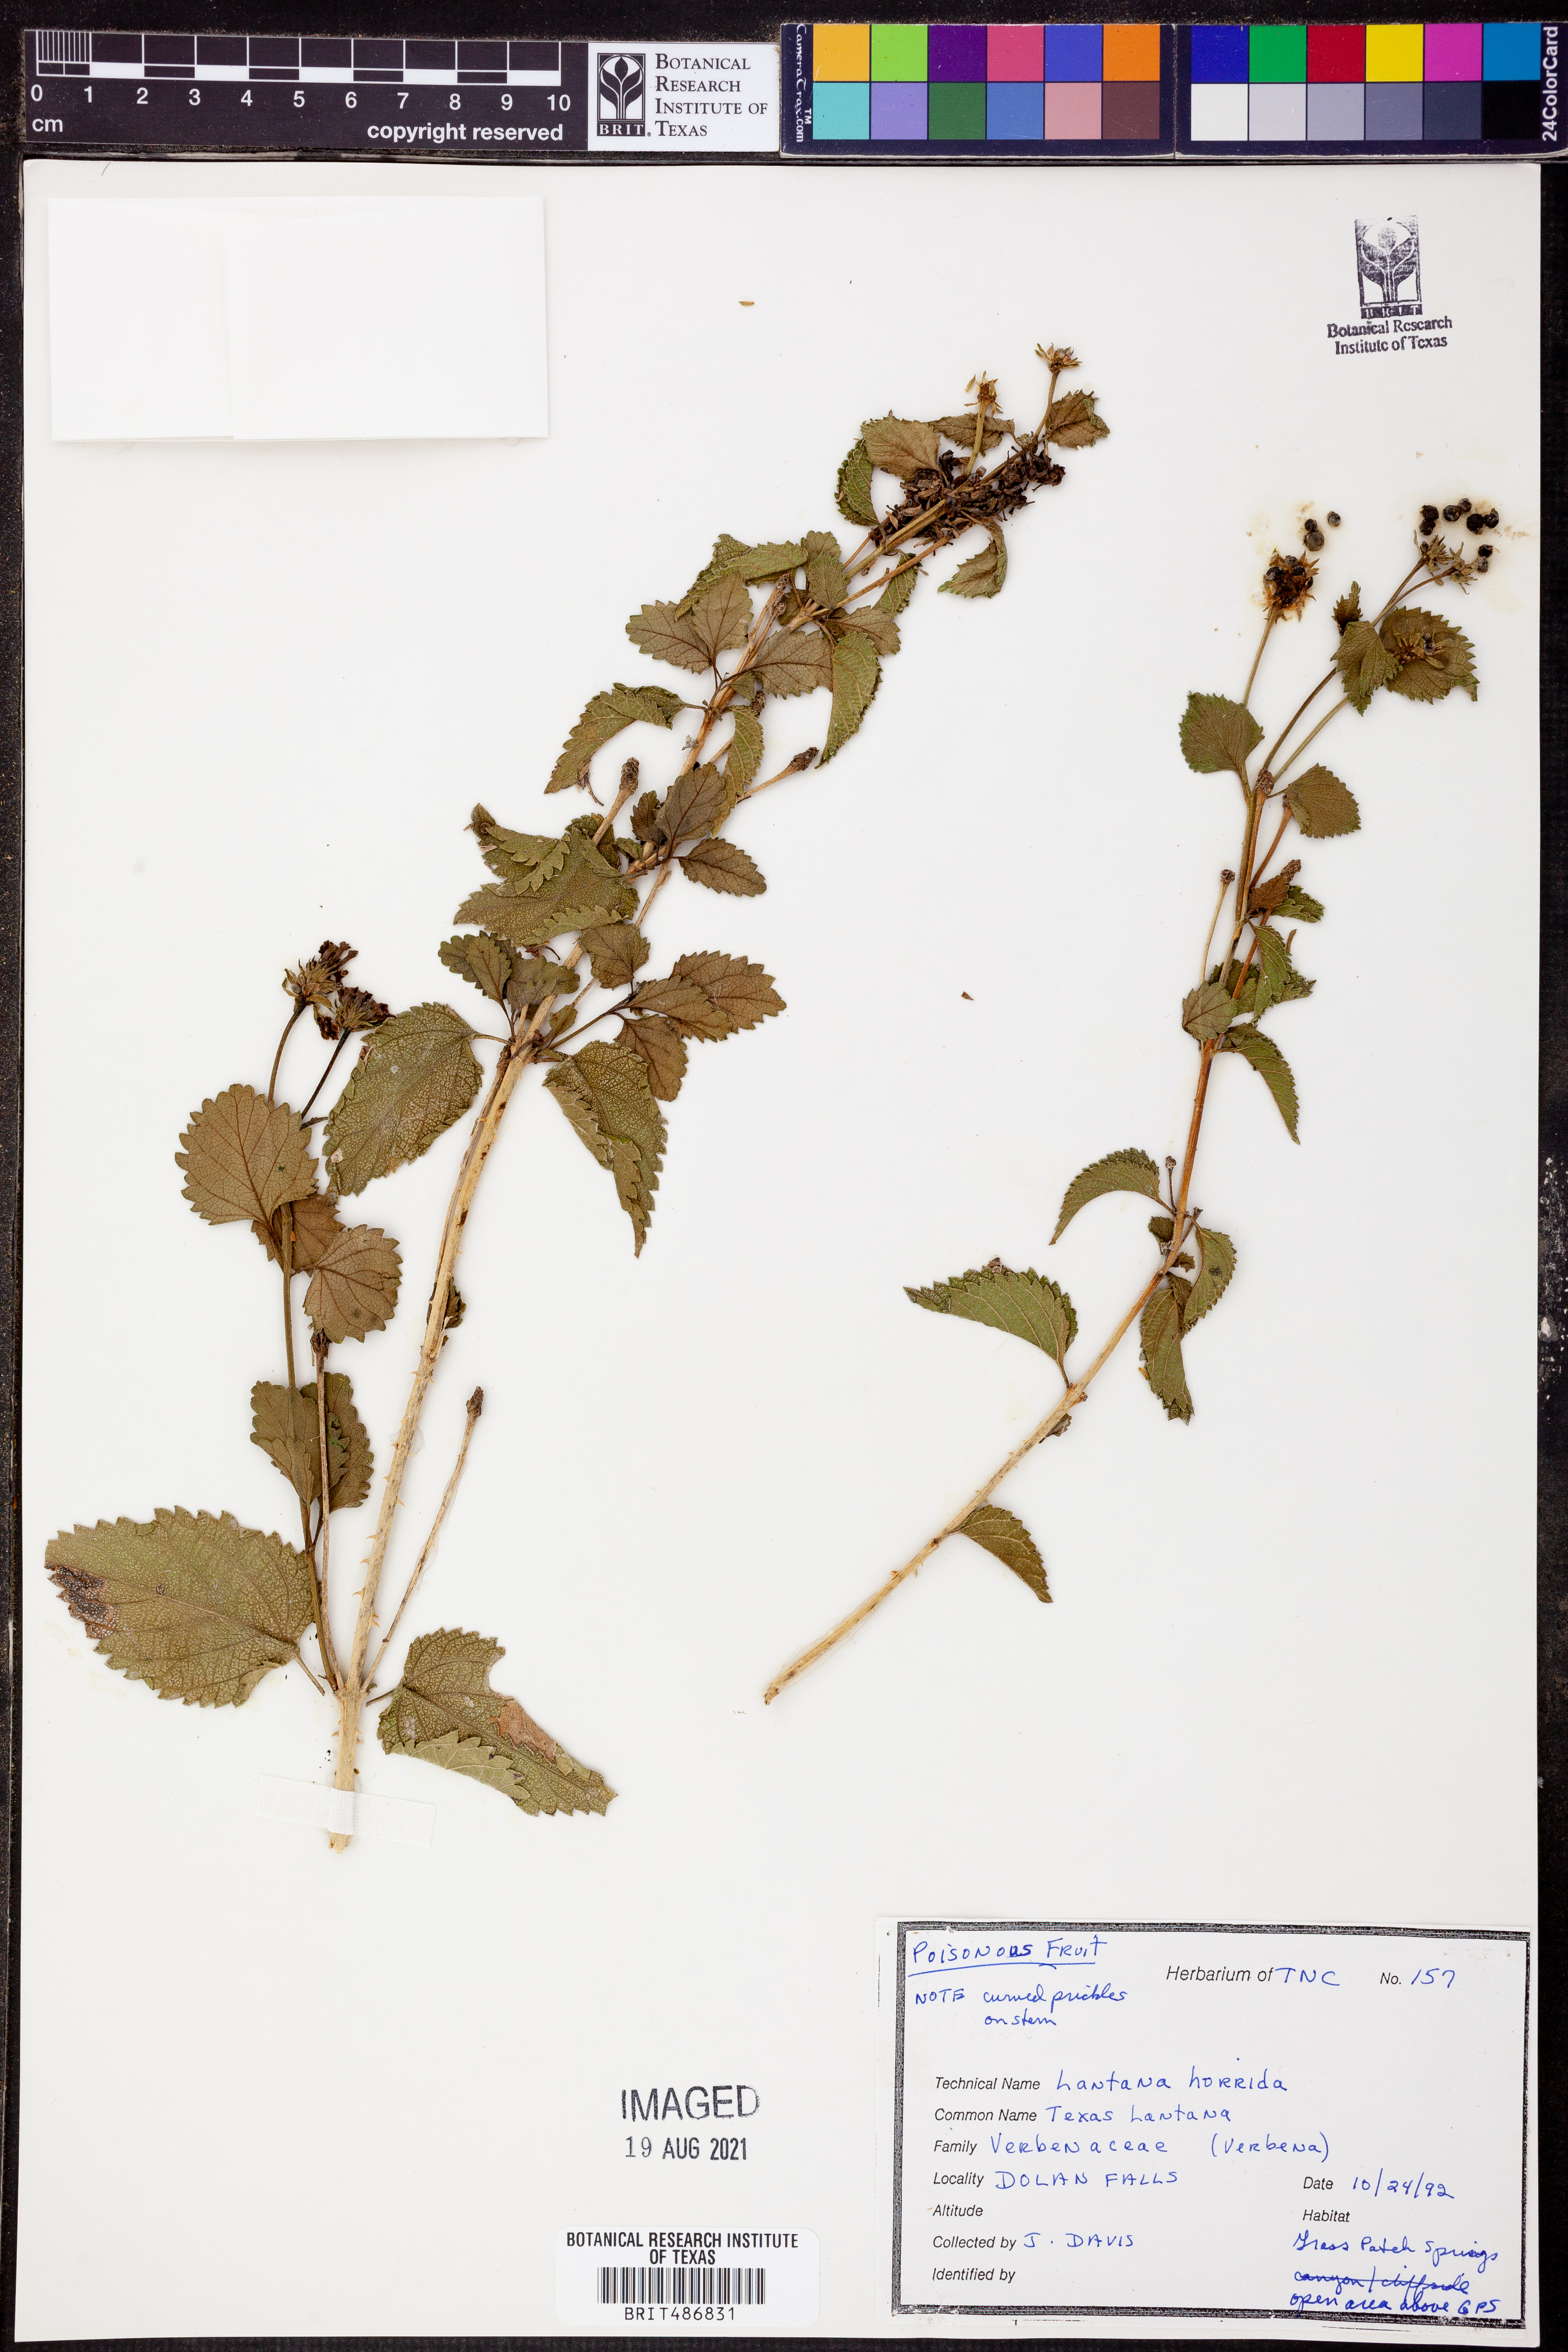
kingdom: Plantae
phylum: Tracheophyta
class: Magnoliopsida
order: Lamiales
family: Verbenaceae
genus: Lantana
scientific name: Lantana horrida
